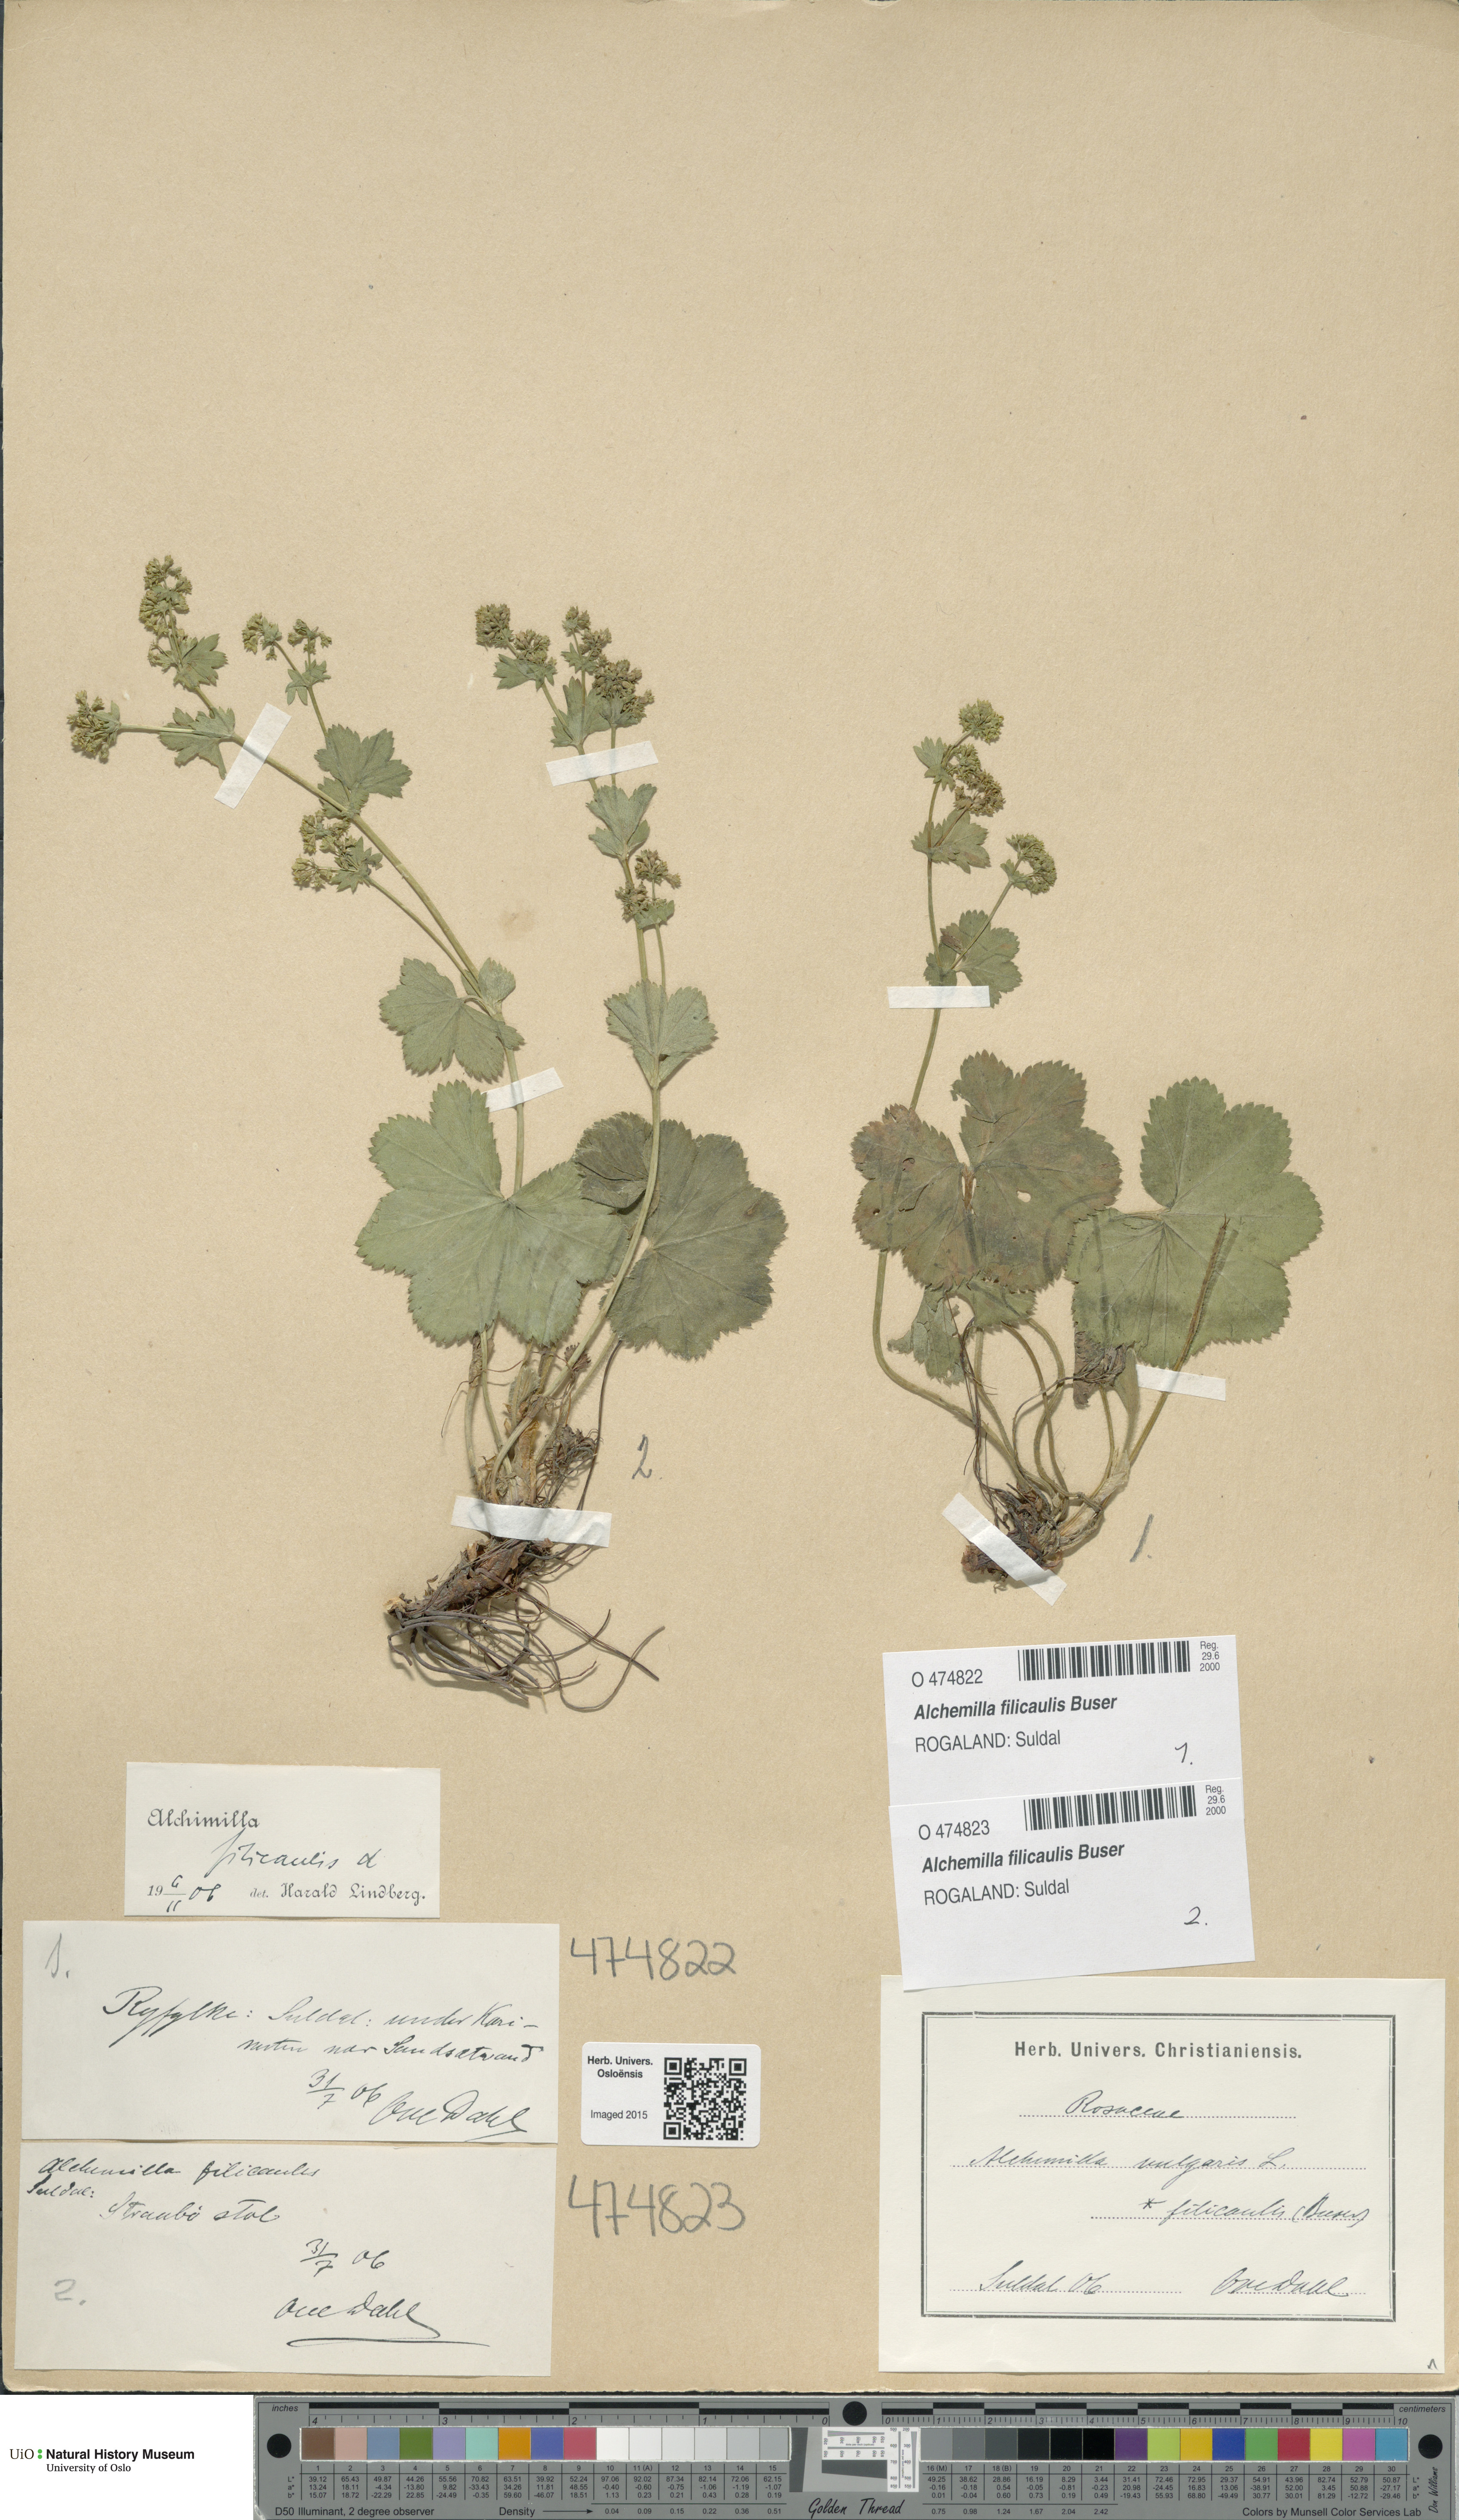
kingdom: Plantae
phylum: Tracheophyta
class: Magnoliopsida
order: Rosales
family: Rosaceae
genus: Alchemilla
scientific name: Alchemilla filicaulis
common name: Hairy lady's-mantle
